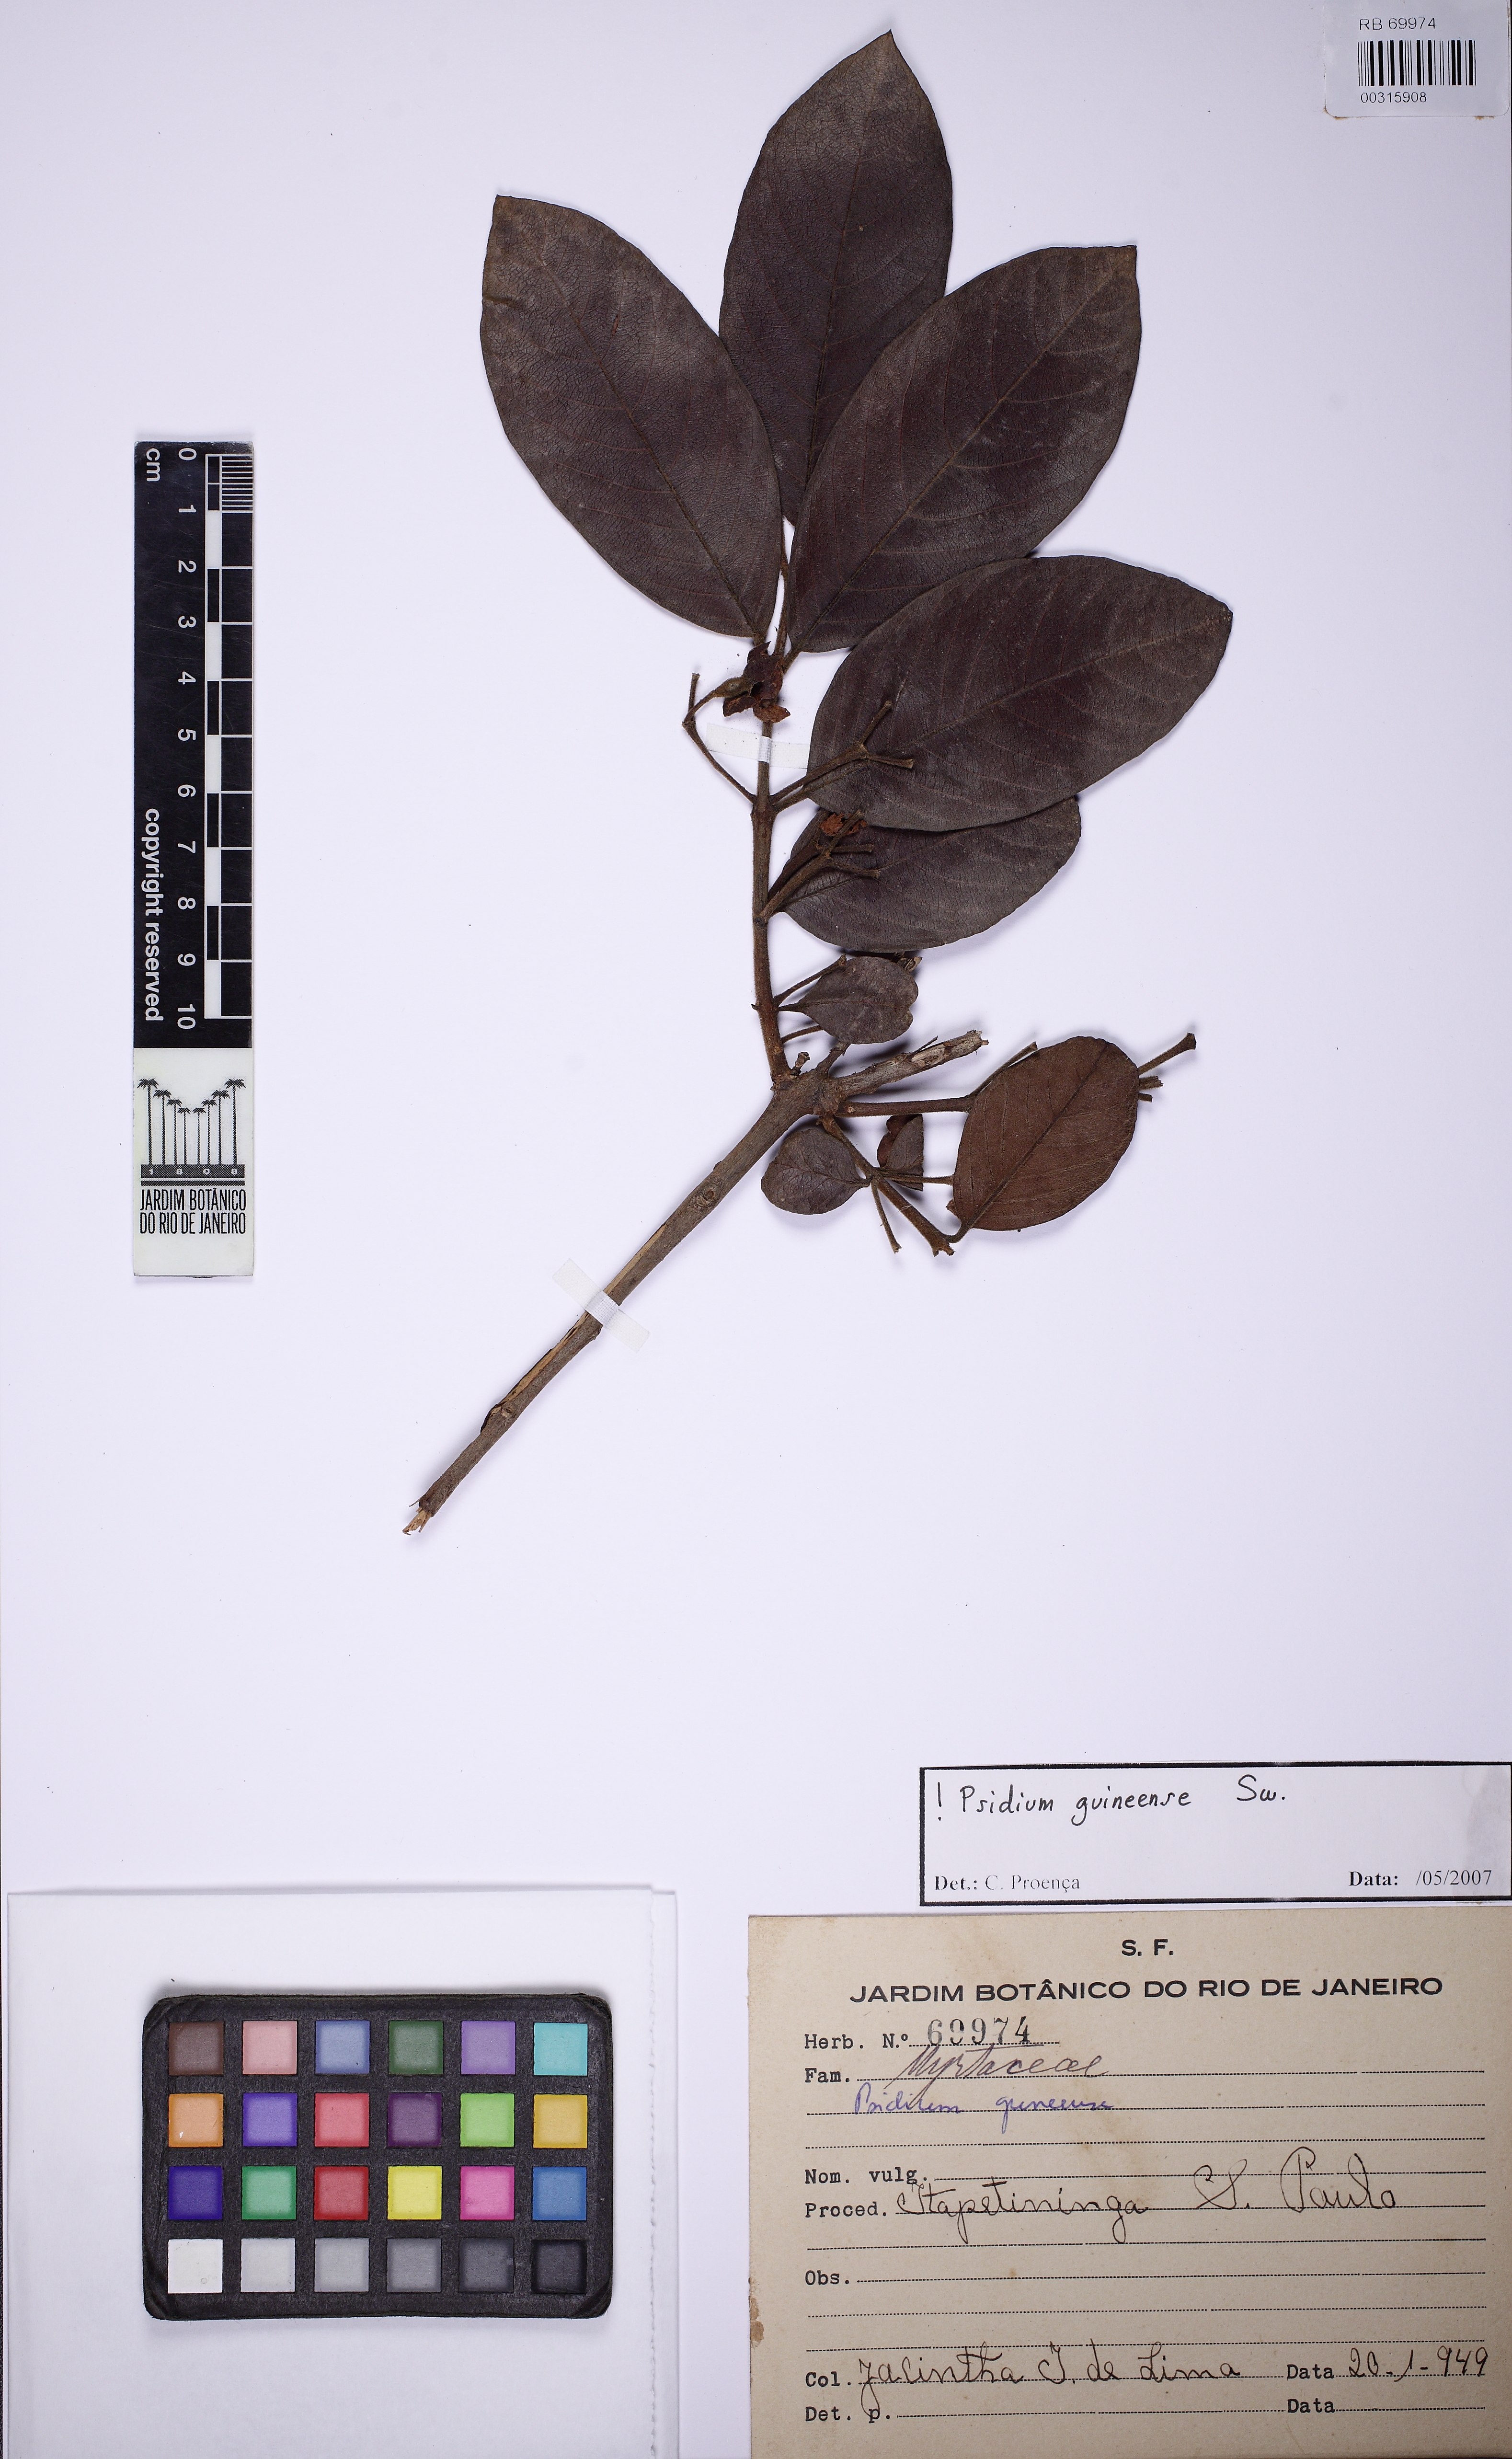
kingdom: Plantae
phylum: Tracheophyta
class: Magnoliopsida
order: Myrtales
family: Myrtaceae
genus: Psidium
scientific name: Psidium guineense
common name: Brazilian guava
